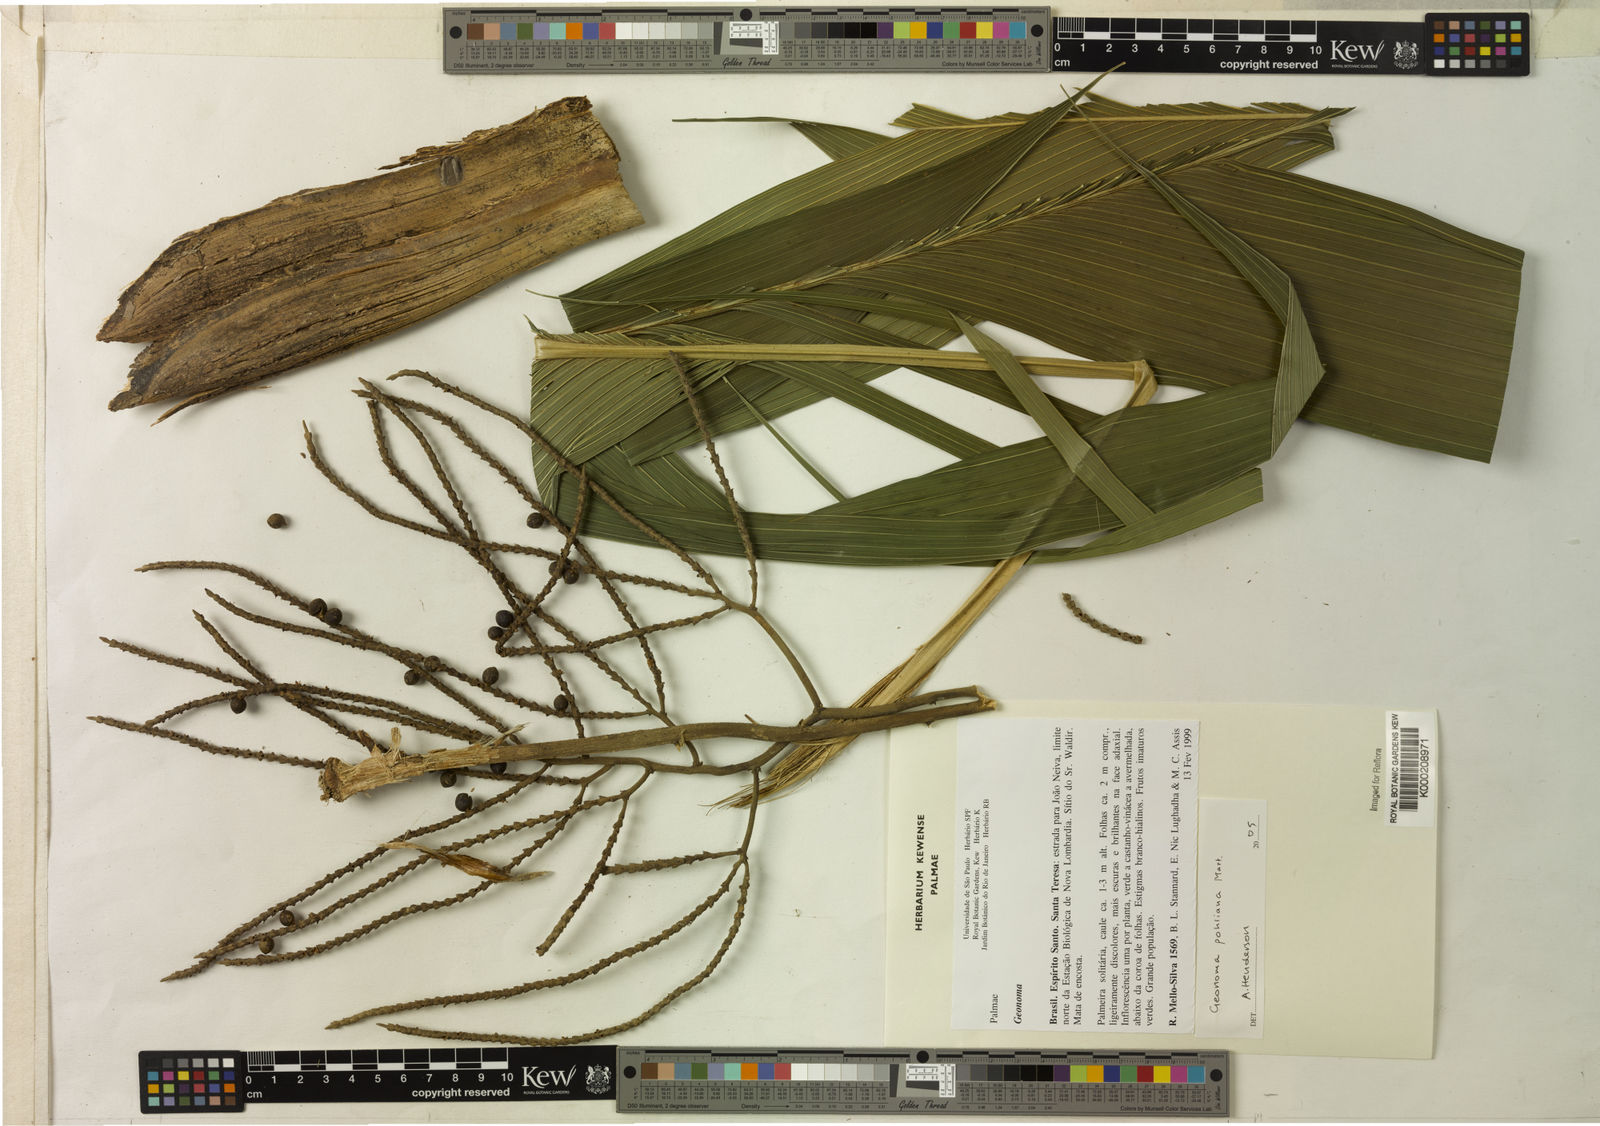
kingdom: Plantae
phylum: Tracheophyta
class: Liliopsida
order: Arecales
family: Arecaceae
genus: Geonoma
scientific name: Geonoma pohliana
